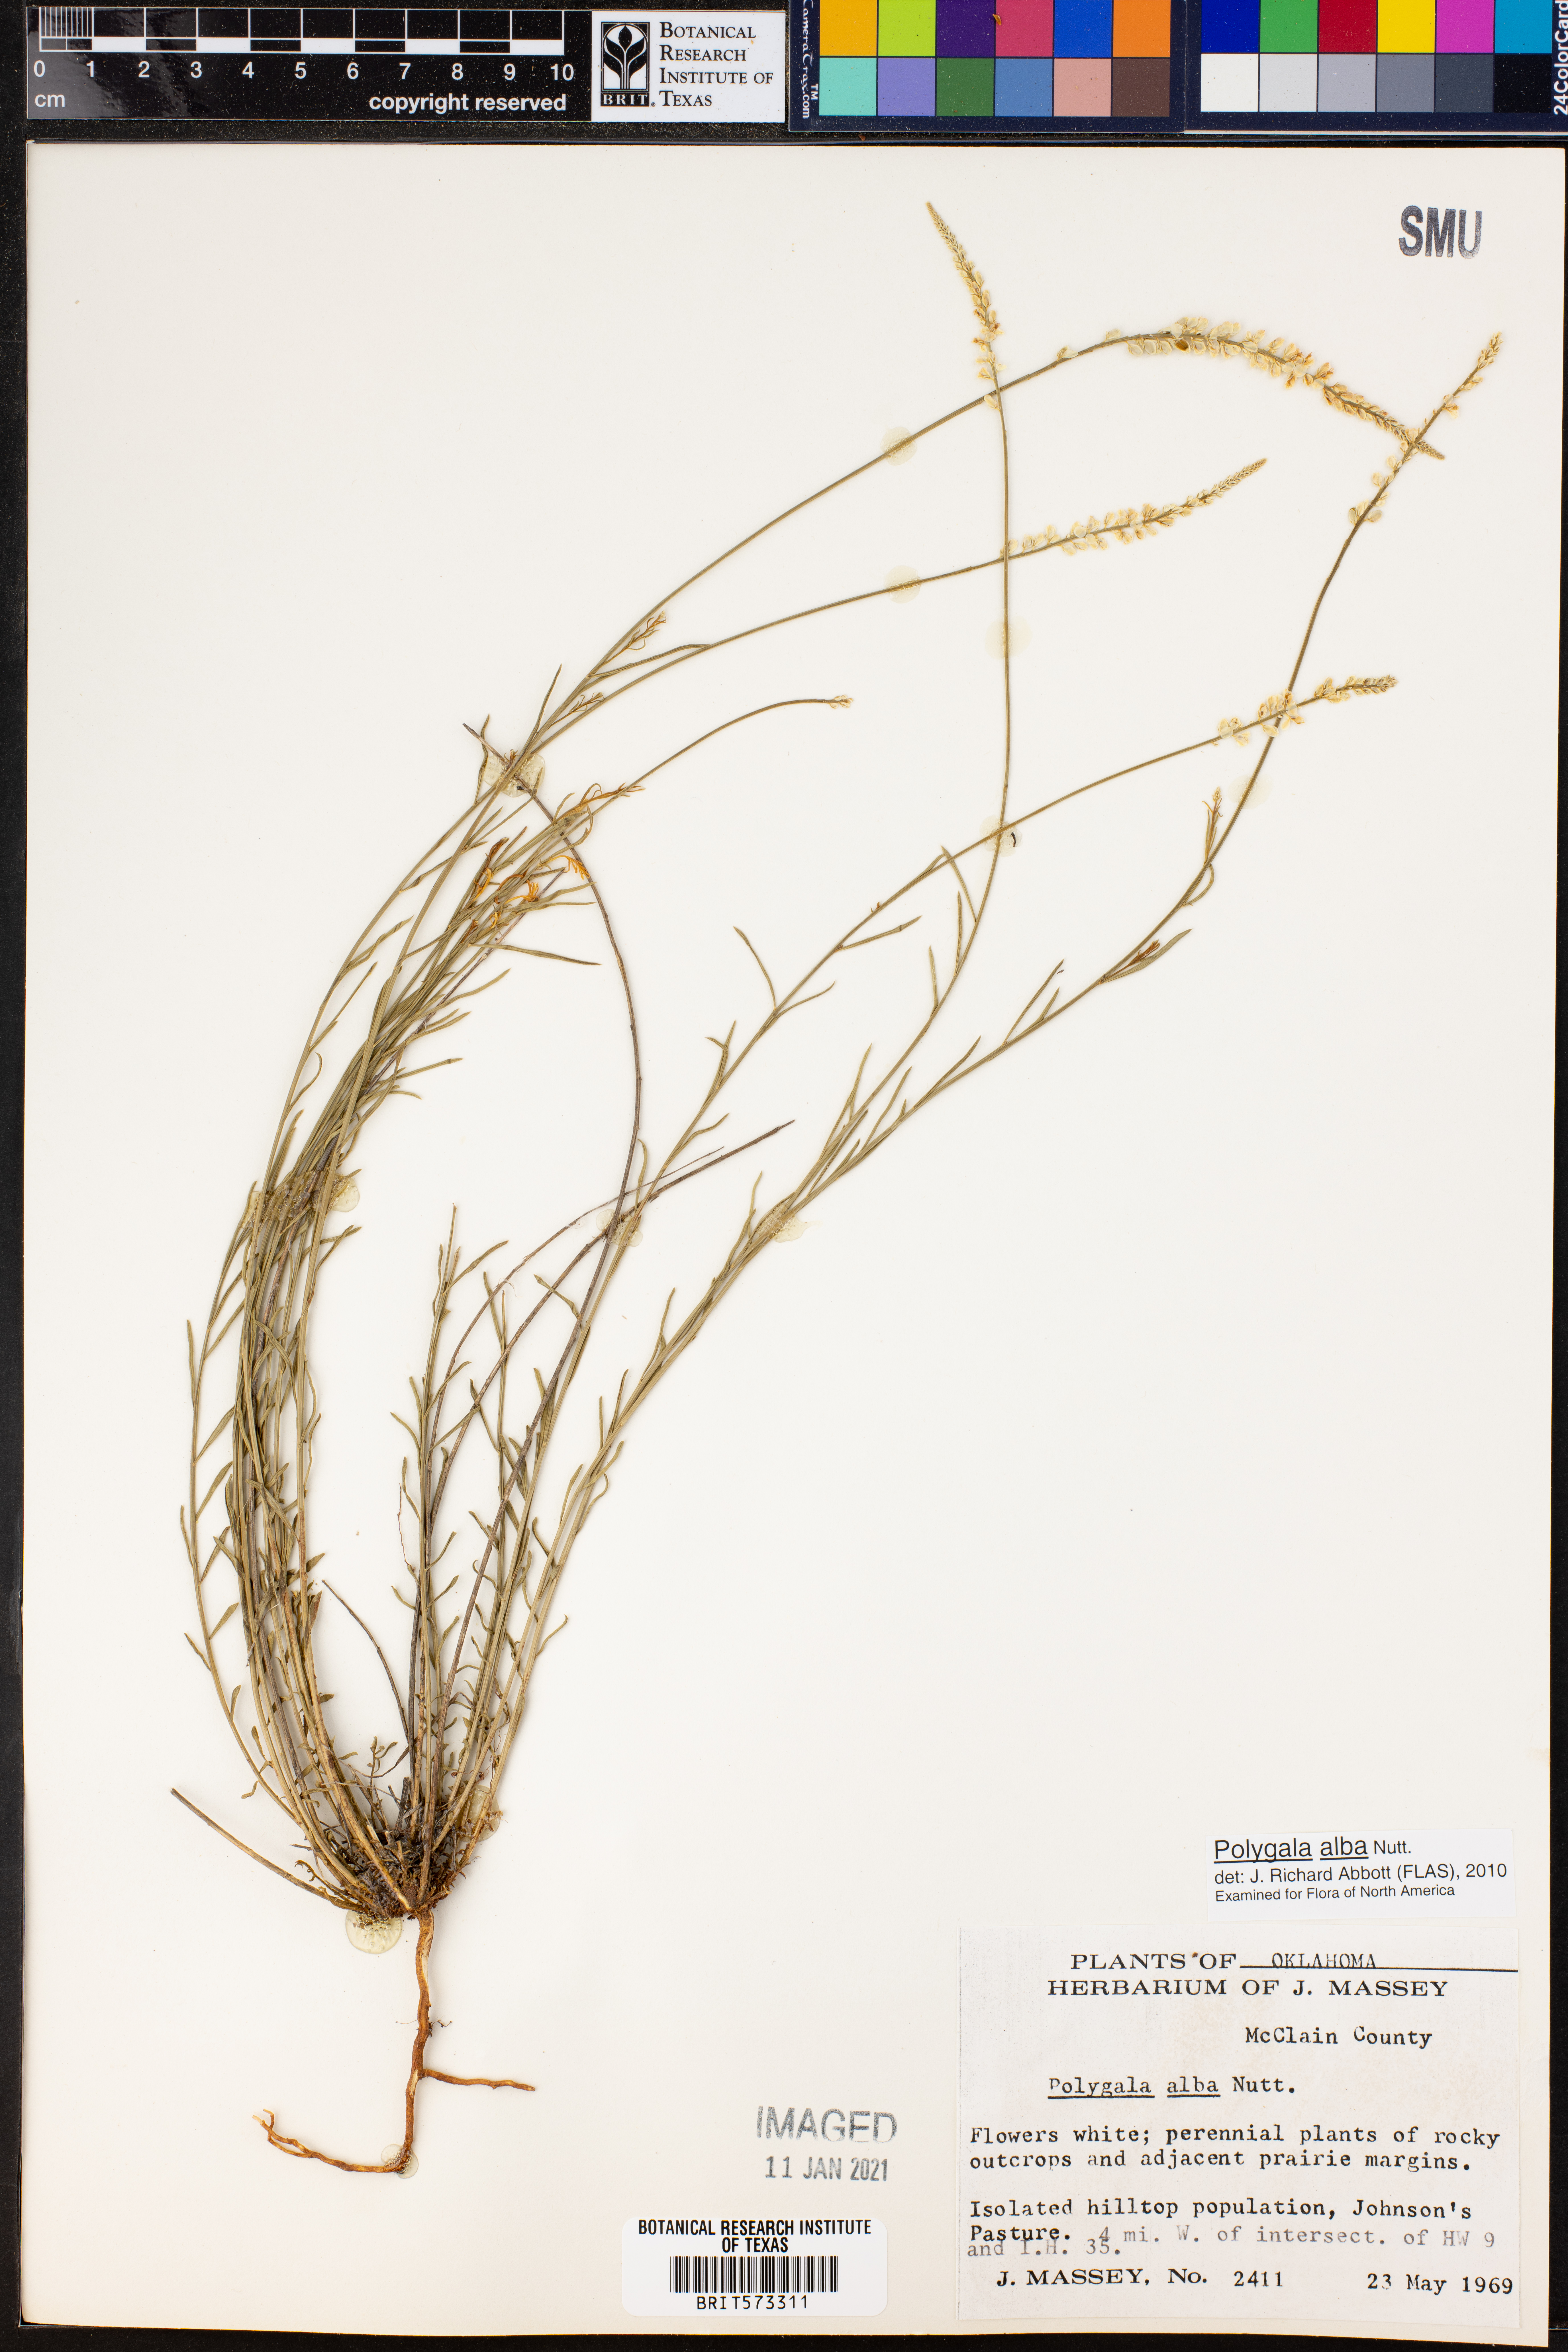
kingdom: Plantae
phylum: Tracheophyta
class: Magnoliopsida
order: Fabales
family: Polygalaceae
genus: Polygala
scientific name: Polygala alba
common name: White milkwort
